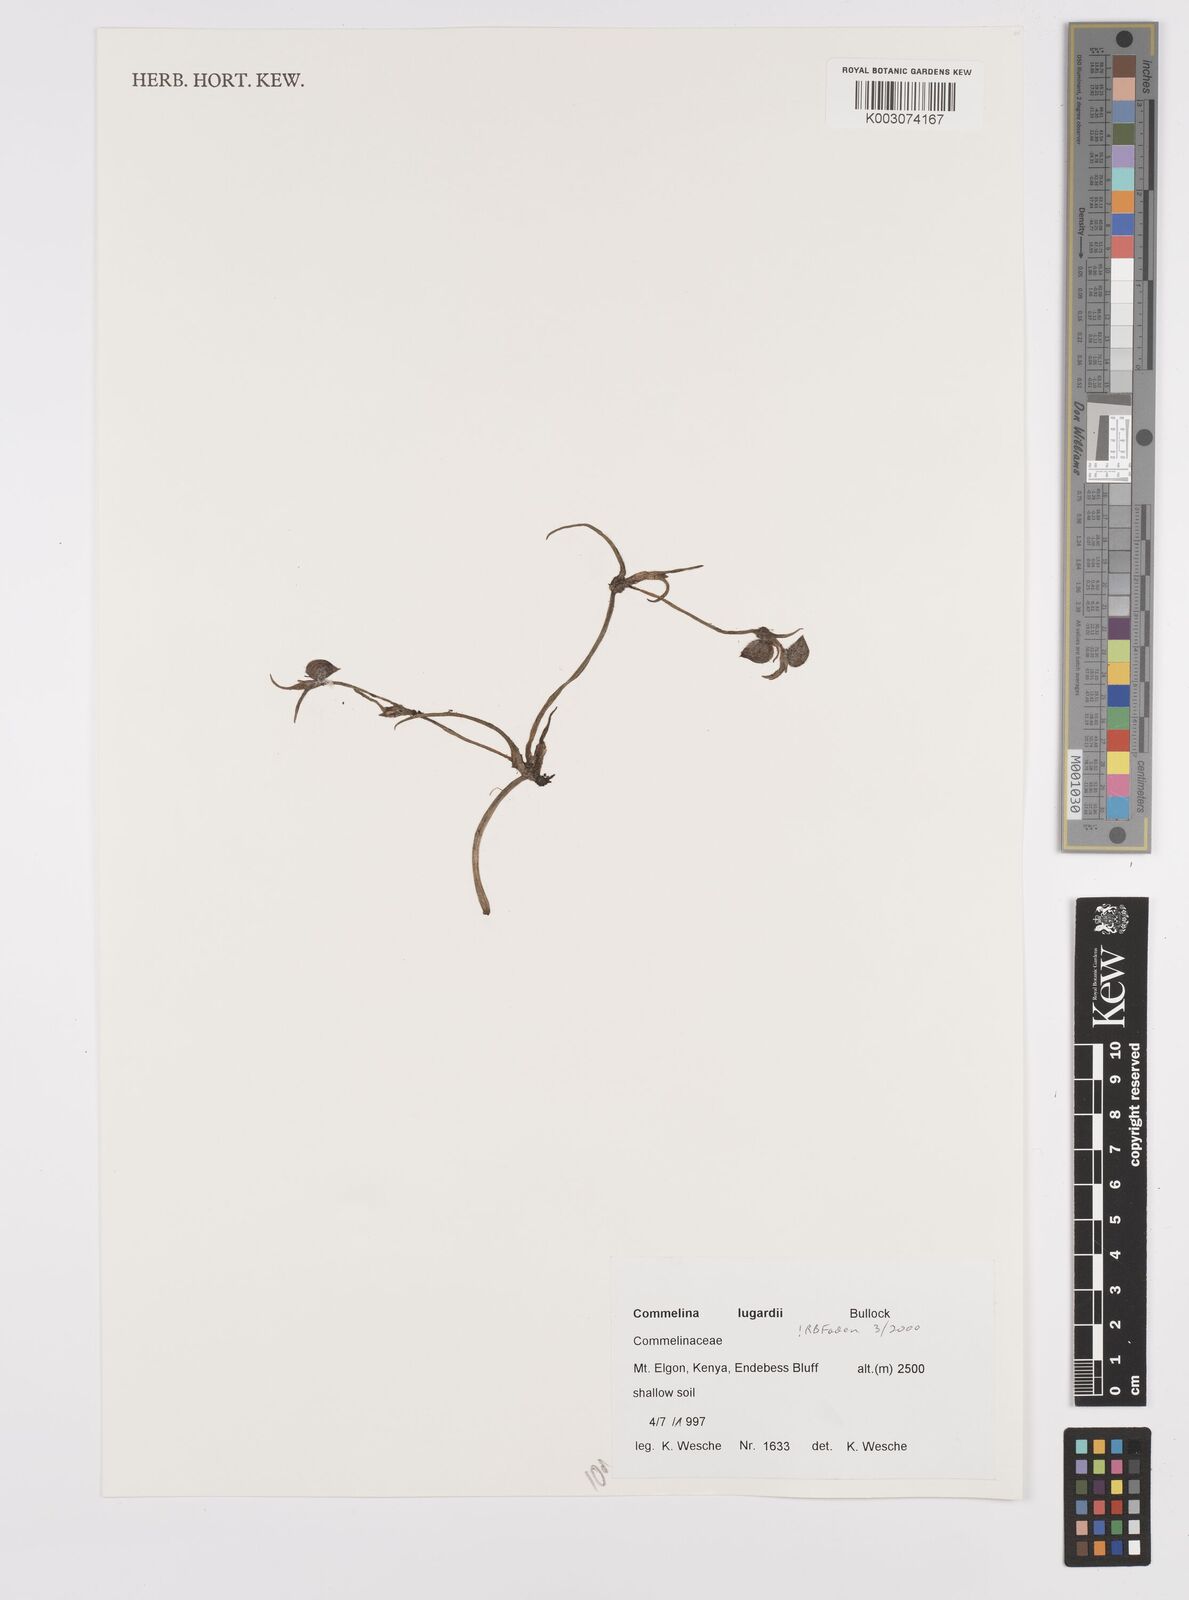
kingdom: Plantae
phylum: Tracheophyta
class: Liliopsida
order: Commelinales
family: Commelinaceae
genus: Commelina
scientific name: Commelina purpurea
